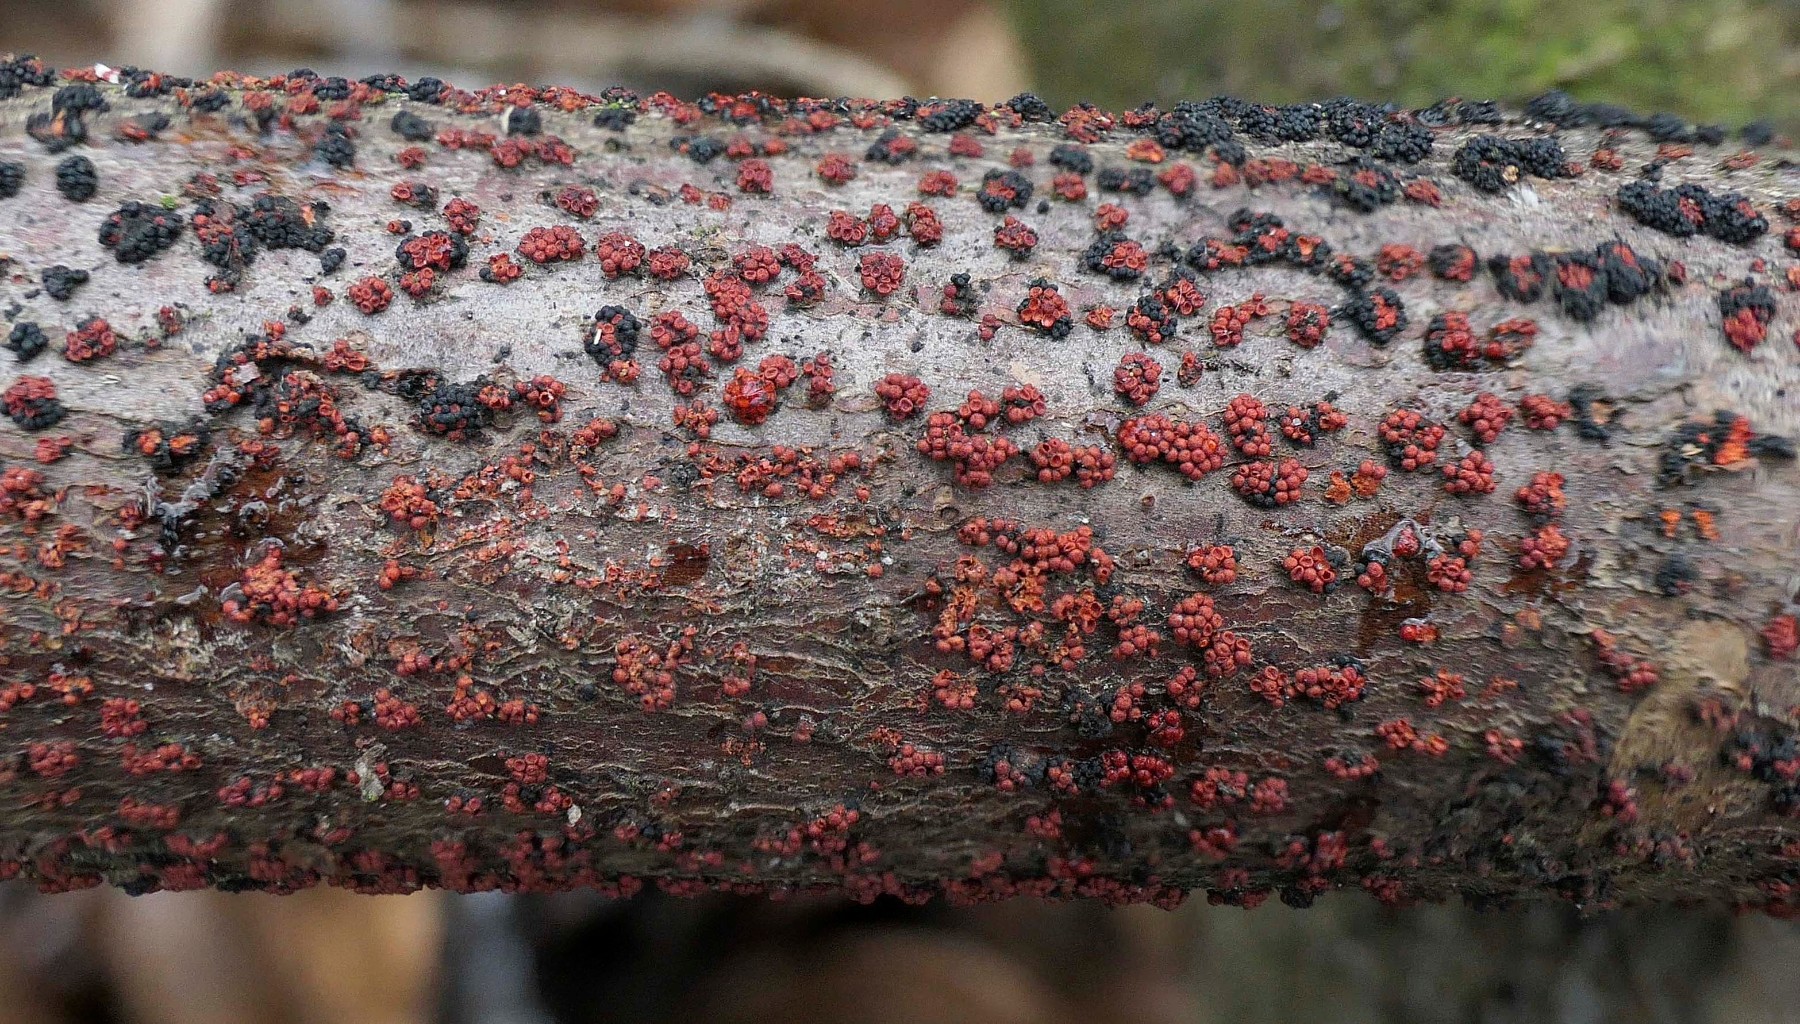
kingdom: Fungi
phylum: Ascomycota
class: Sordariomycetes
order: Hypocreales
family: Nectriaceae
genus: Nectria
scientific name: Nectria cinnabarina
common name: almindelig cinnobersvamp
